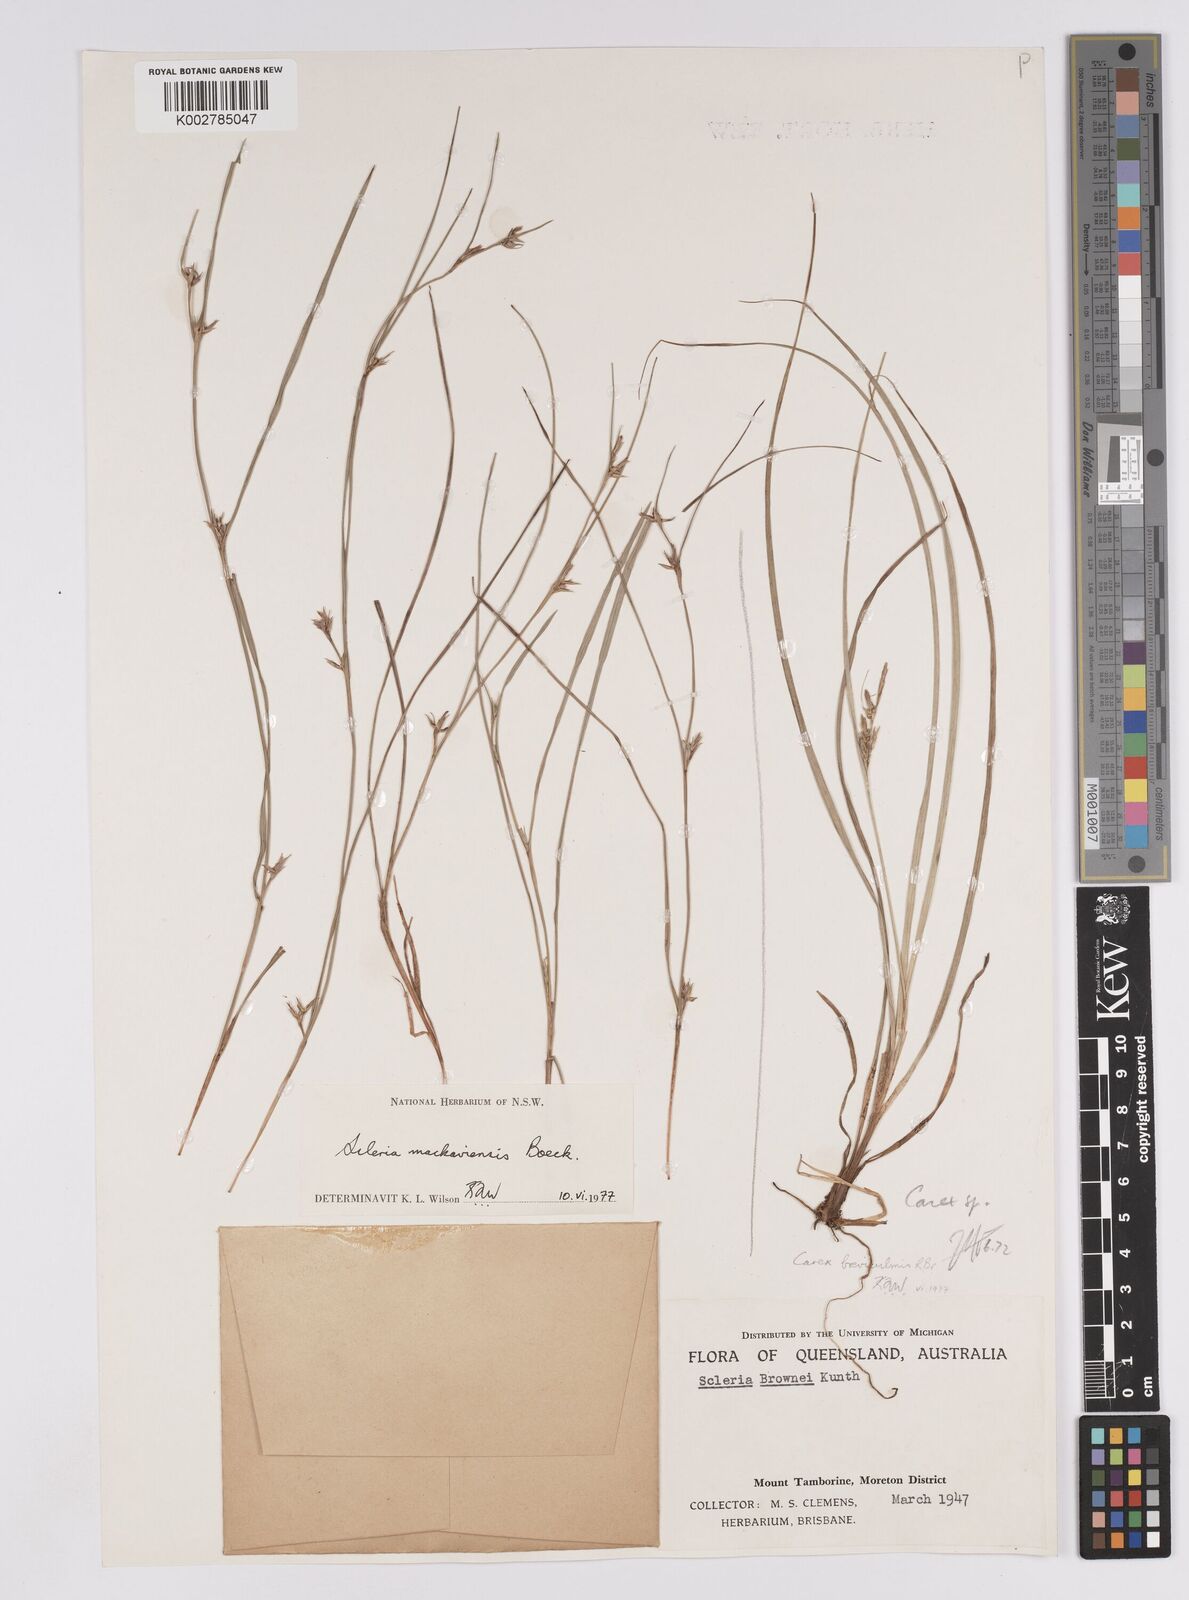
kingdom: Plantae
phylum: Tracheophyta
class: Liliopsida
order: Poales
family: Cyperaceae
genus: Scleria
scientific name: Scleria mackaviensis
